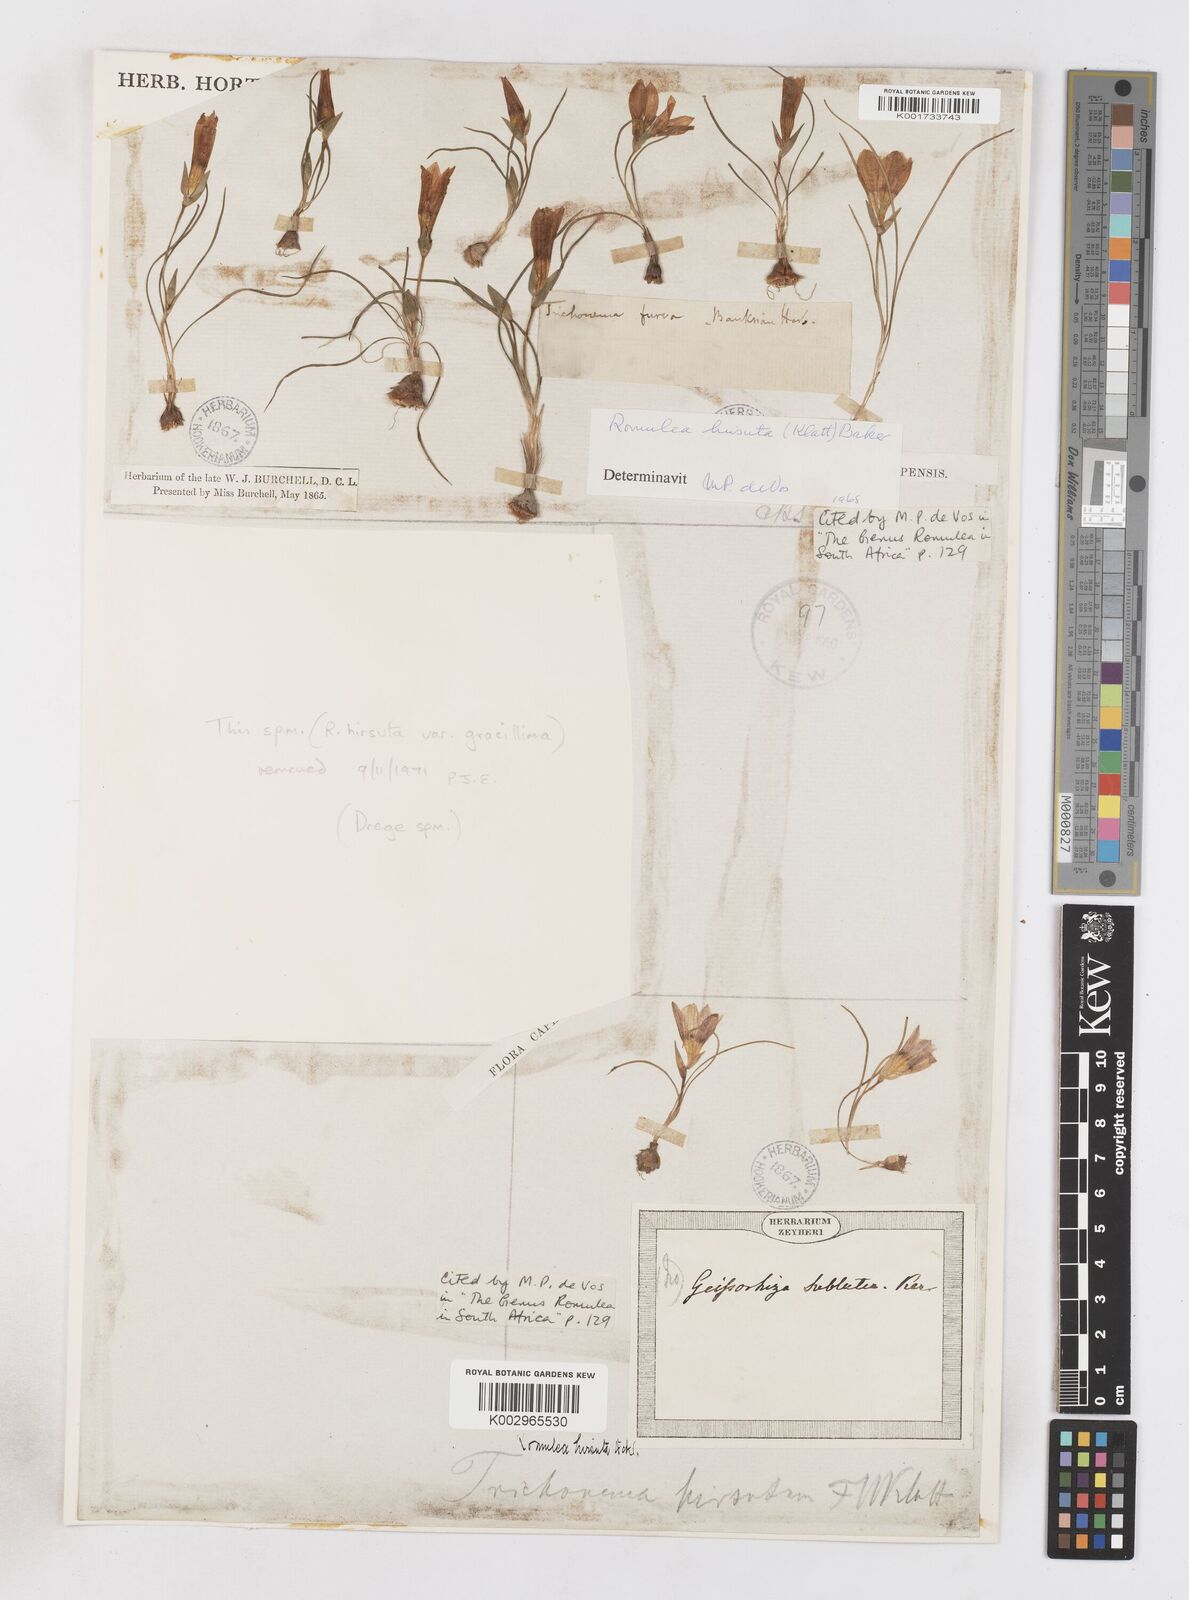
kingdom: Plantae
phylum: Tracheophyta
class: Liliopsida
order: Asparagales
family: Iridaceae
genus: Romulea
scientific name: Romulea hirsuta
